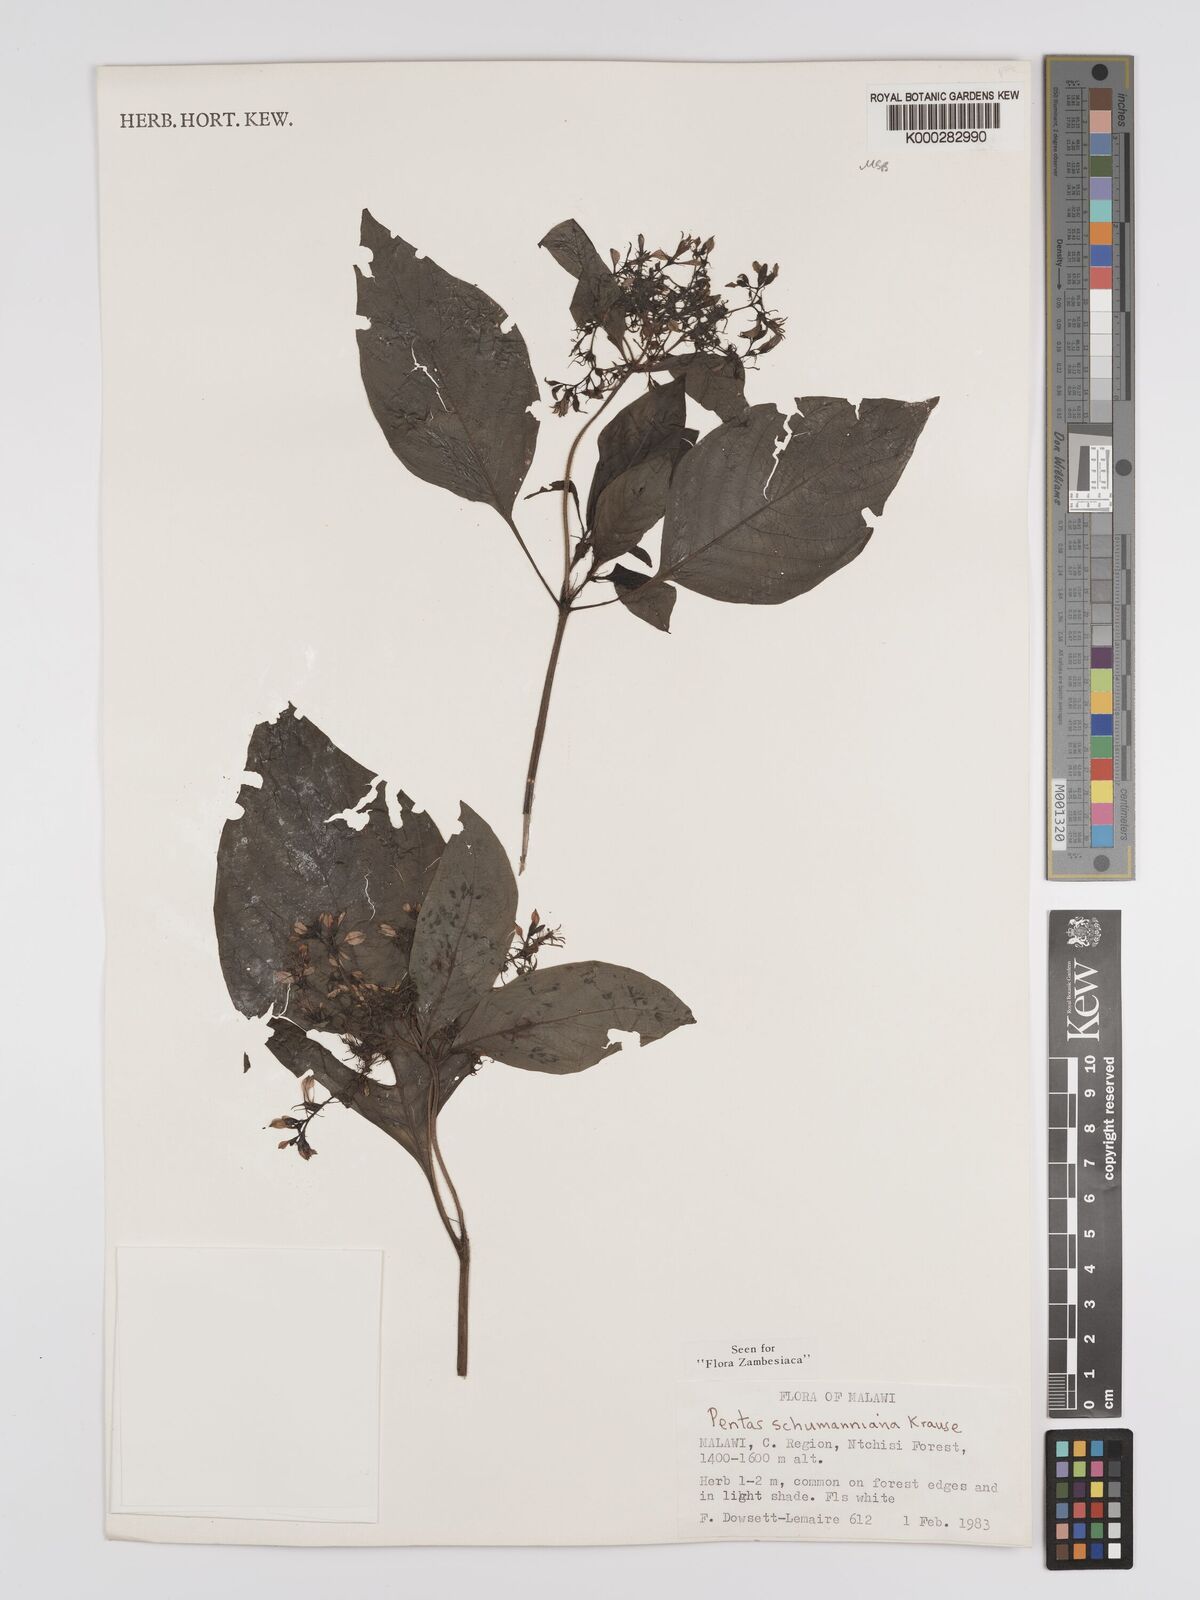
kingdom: Plantae
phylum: Tracheophyta
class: Magnoliopsida
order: Gentianales
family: Rubiaceae
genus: Phyllopentas
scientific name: Phyllopentas schumanniana
